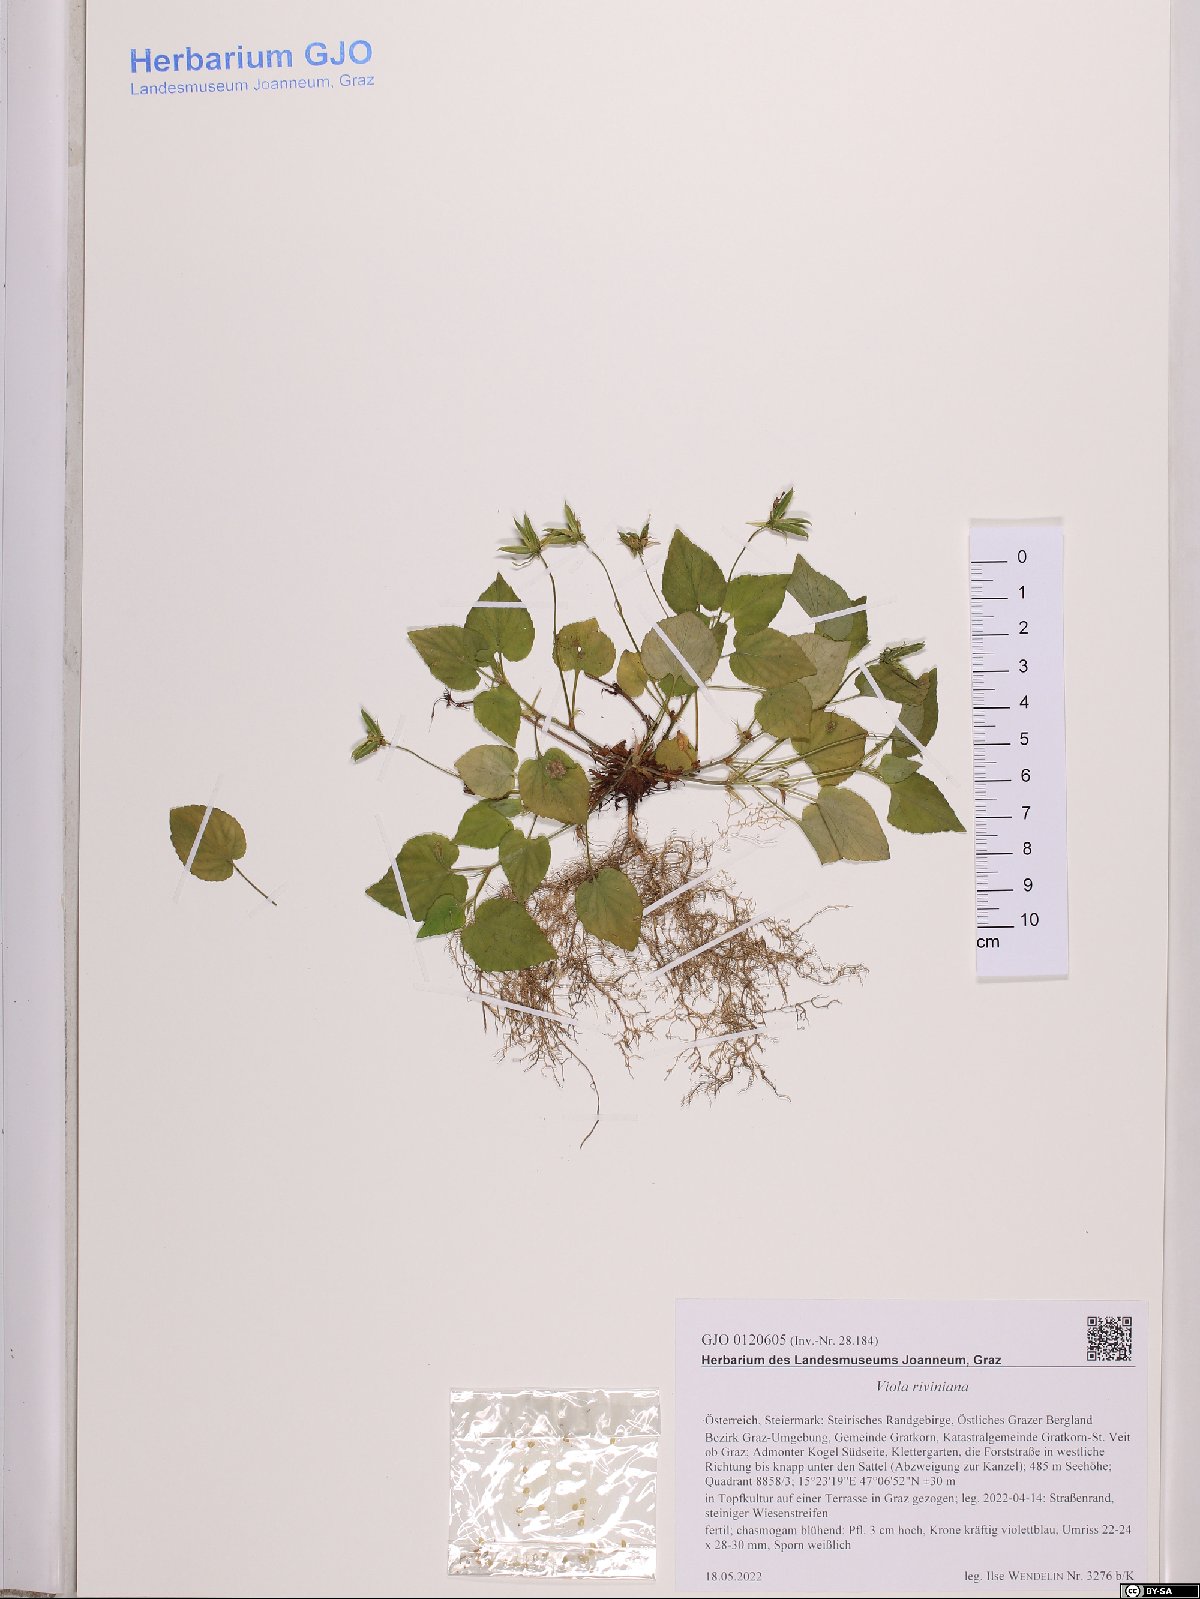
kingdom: Plantae
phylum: Tracheophyta
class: Magnoliopsida
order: Malpighiales
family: Violaceae
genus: Viola
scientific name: Viola riviniana
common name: Common dog-violet
